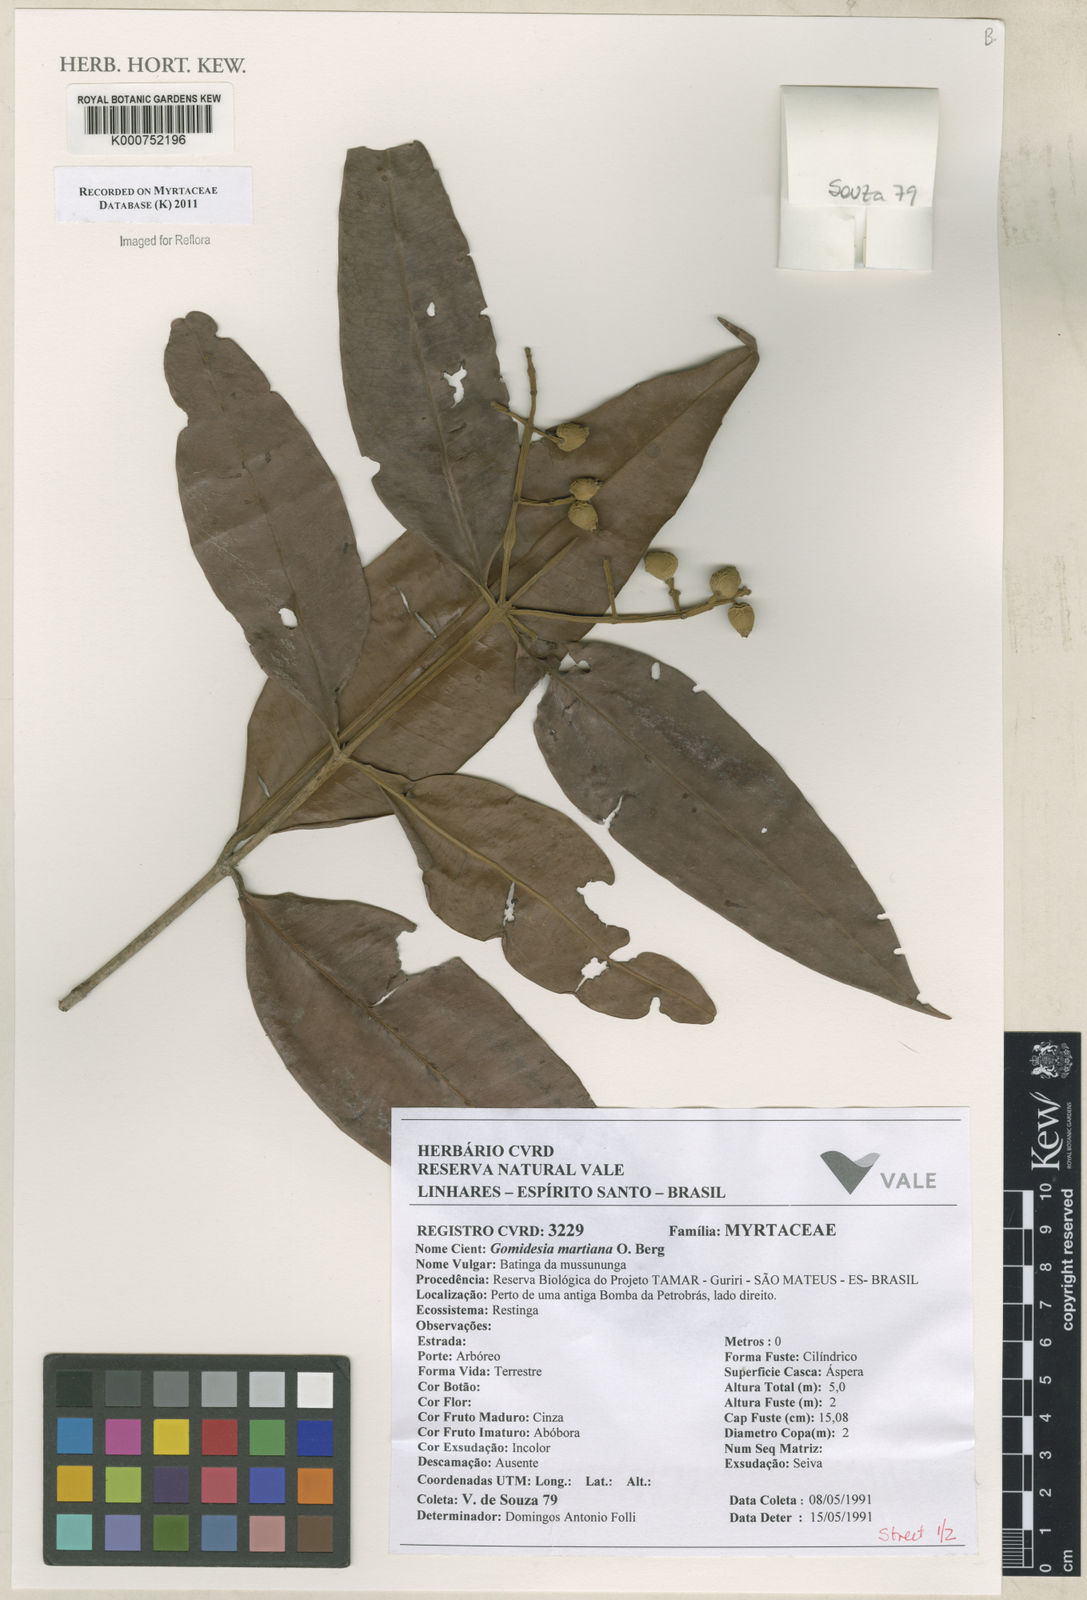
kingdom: Plantae
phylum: Tracheophyta
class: Magnoliopsida
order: Myrtales
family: Myrtaceae
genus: Myrcia
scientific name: Myrcia vittoriana
